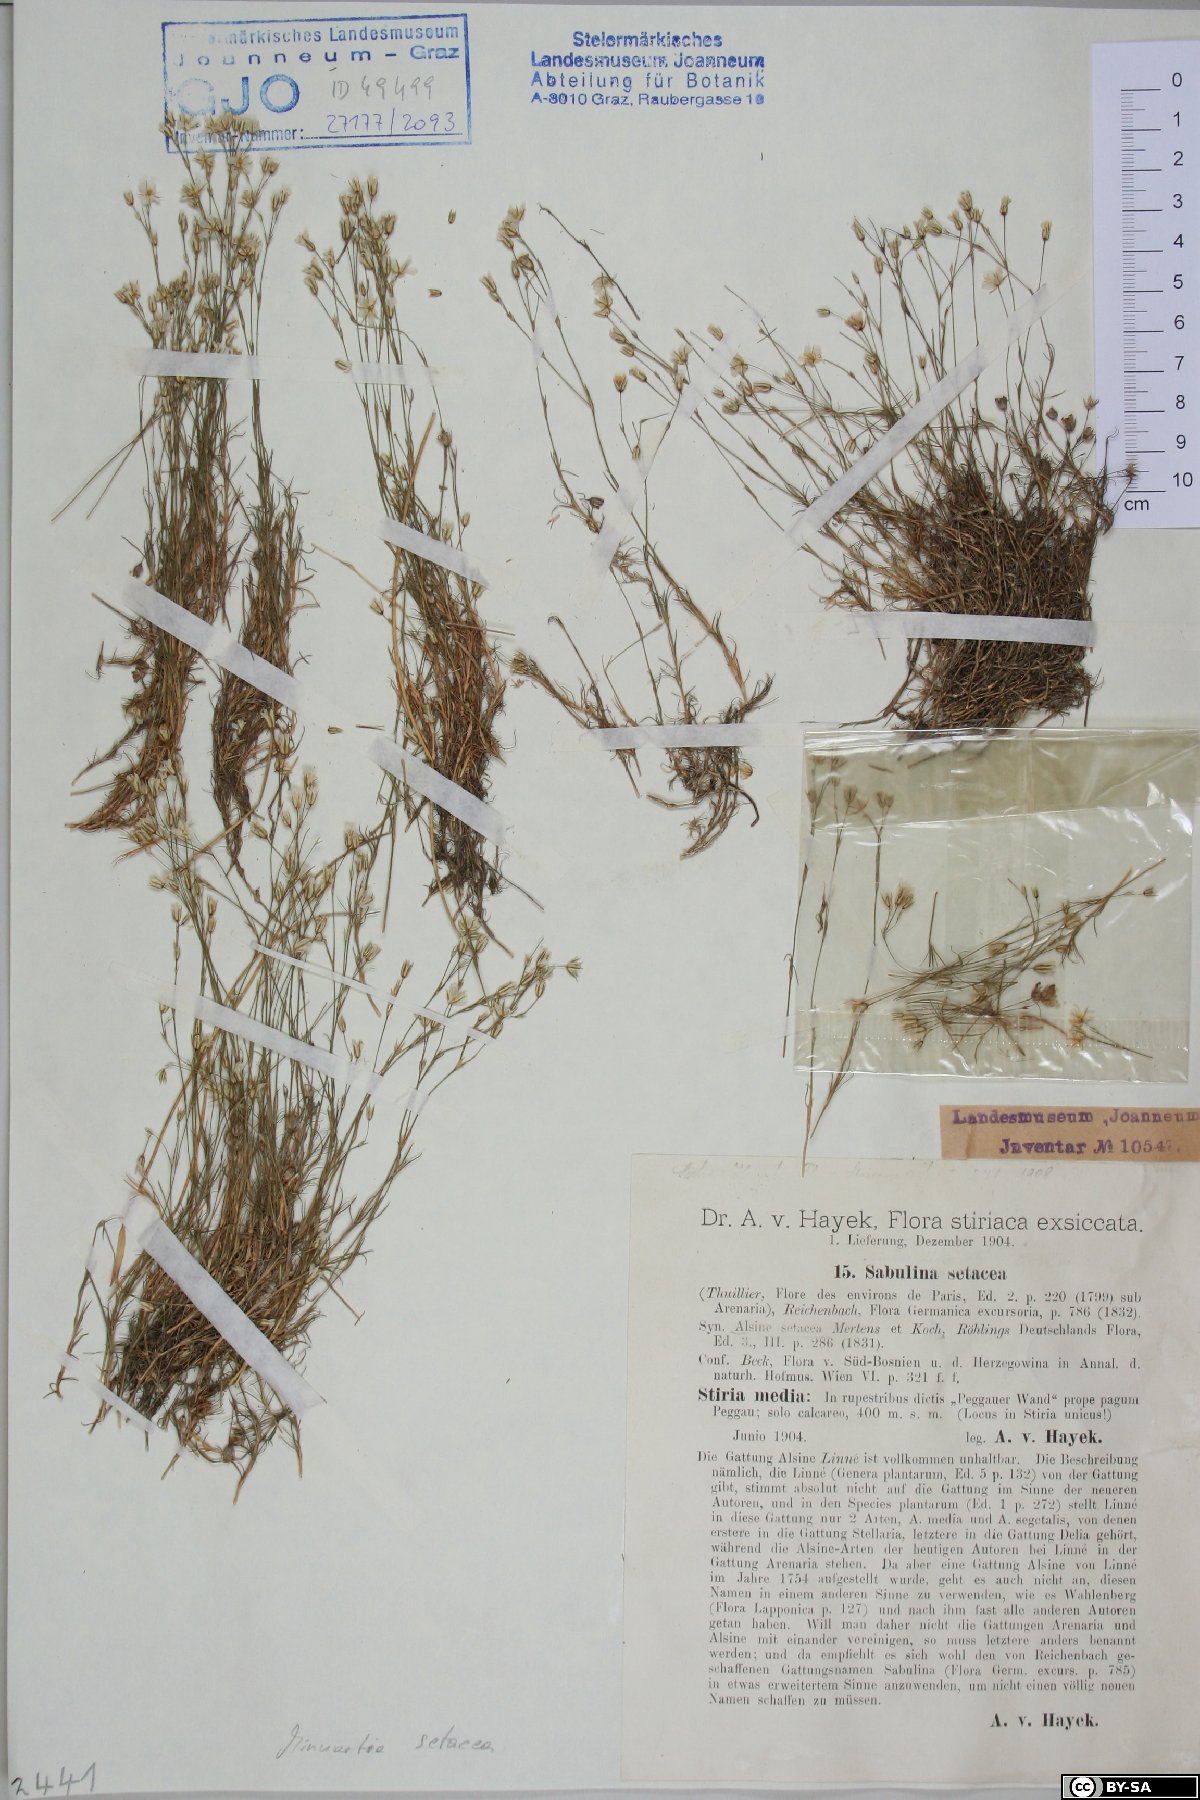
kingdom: Plantae
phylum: Tracheophyta
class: Magnoliopsida
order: Caryophyllales
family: Caryophyllaceae
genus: Minuartia
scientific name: Minuartia setacea
